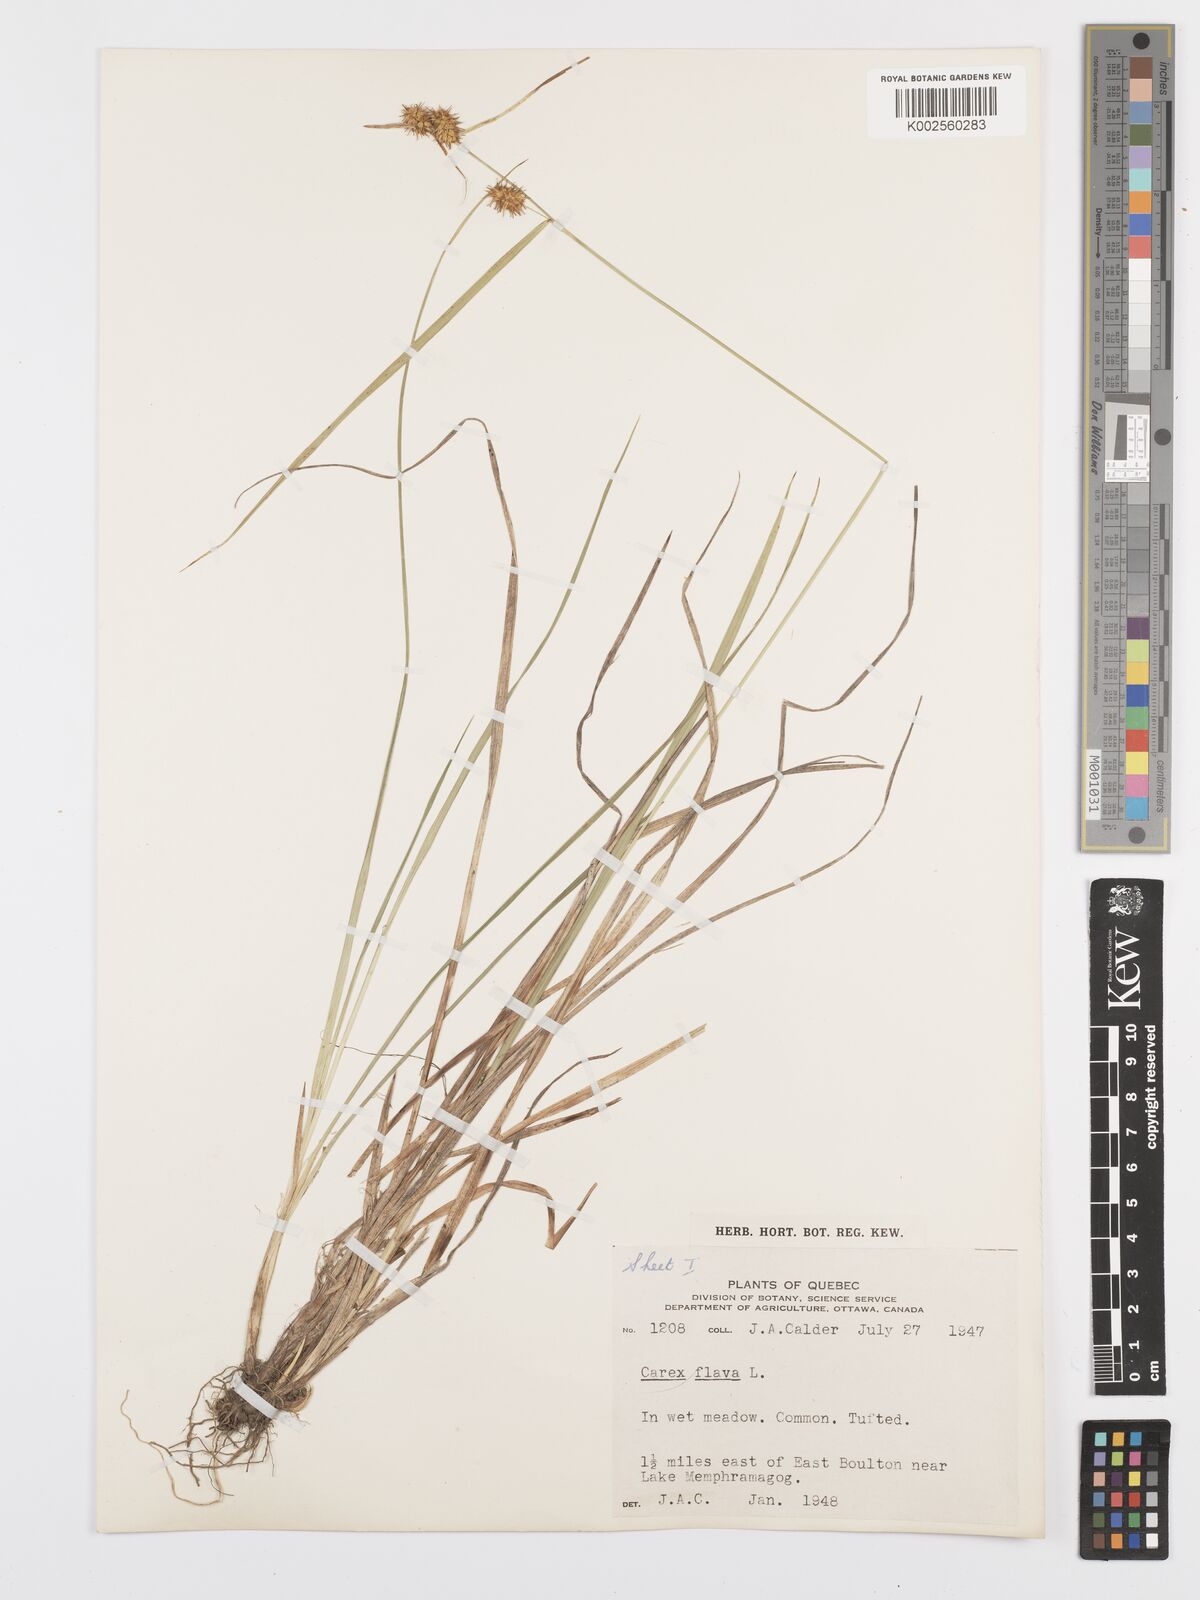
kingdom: Plantae
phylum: Tracheophyta
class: Liliopsida
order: Poales
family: Cyperaceae
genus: Carex
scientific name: Carex flava
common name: Large yellow-sedge
